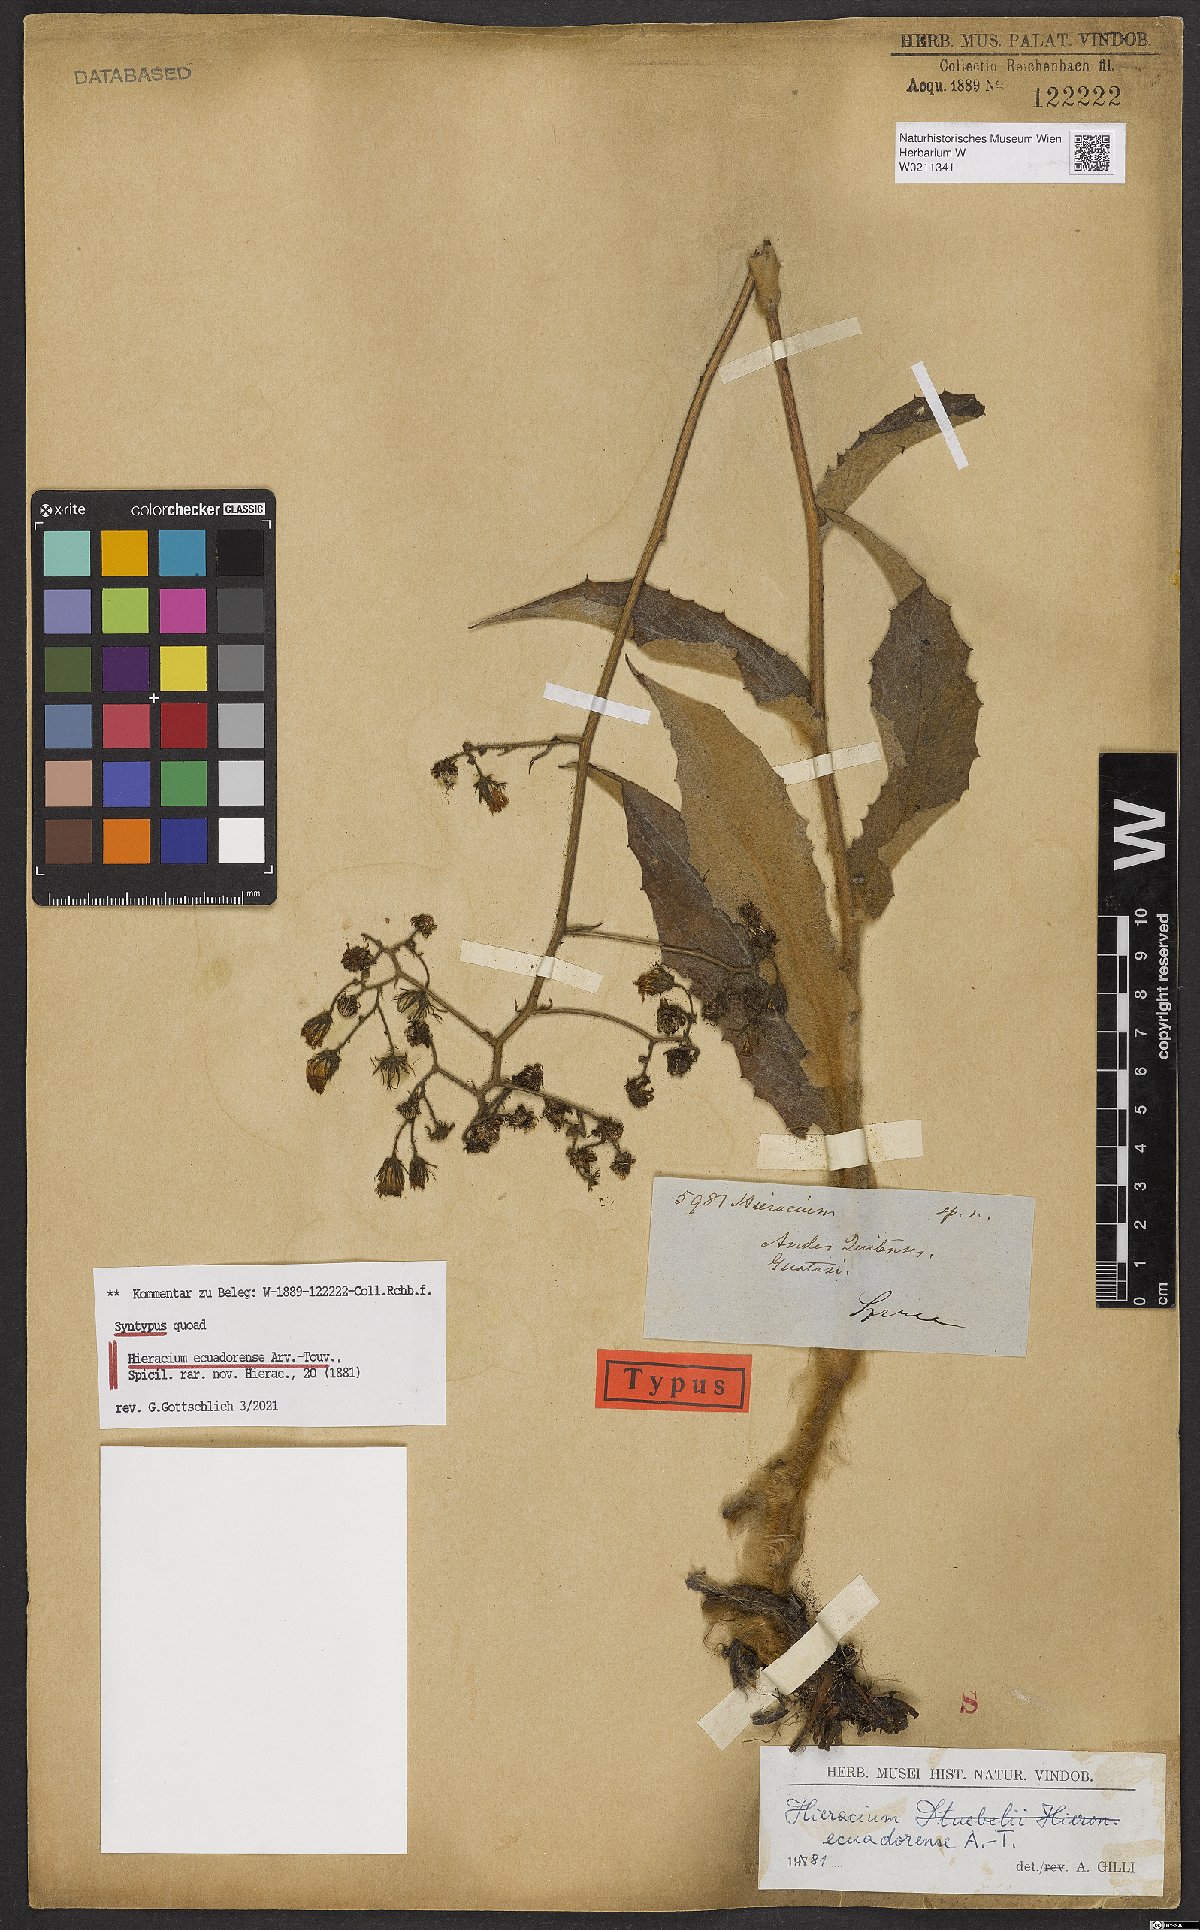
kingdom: Plantae
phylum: Tracheophyta
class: Magnoliopsida
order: Asterales
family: Asteraceae
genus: Hieracium
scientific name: Hieracium ecuadorense
